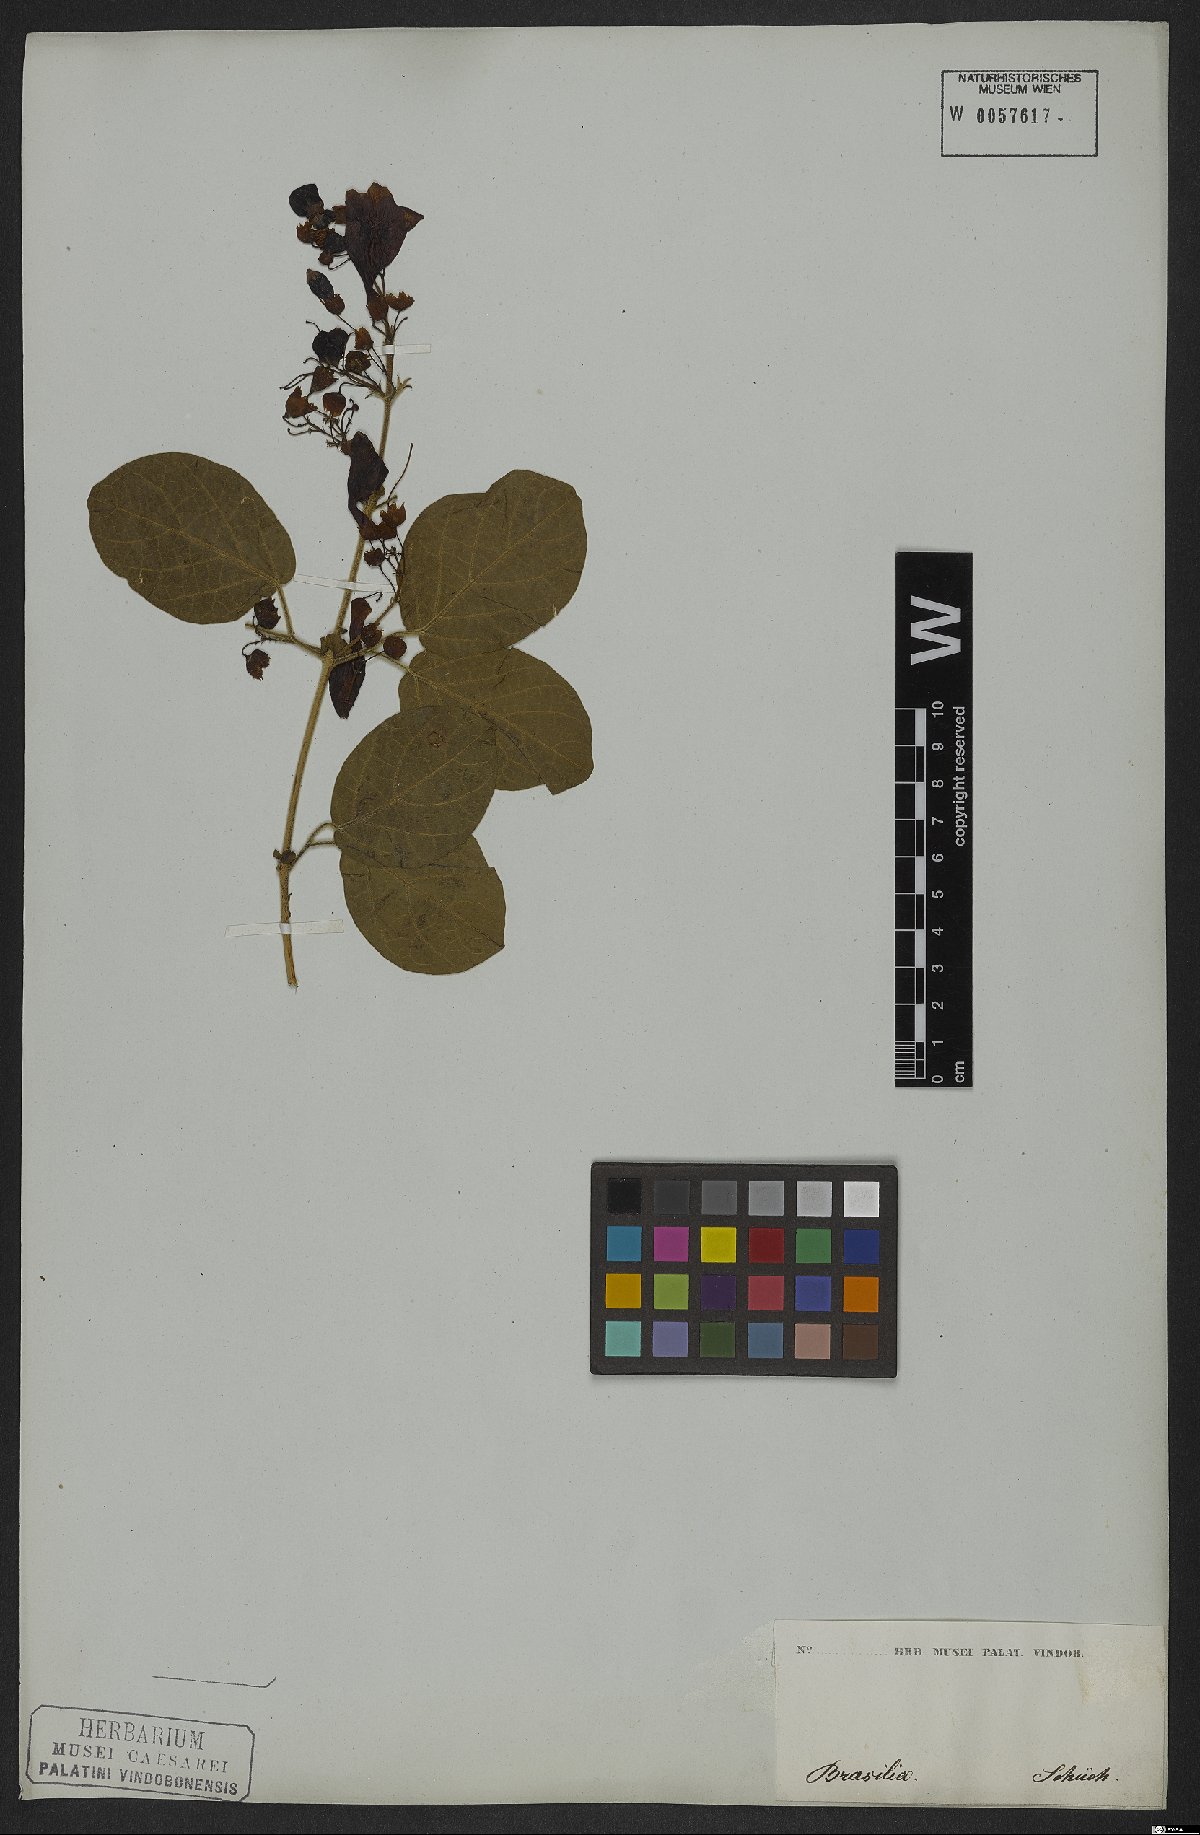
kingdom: Plantae
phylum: Tracheophyta
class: Magnoliopsida
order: Lamiales
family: Bignoniaceae
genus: Fridericia
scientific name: Fridericia leucopogon
